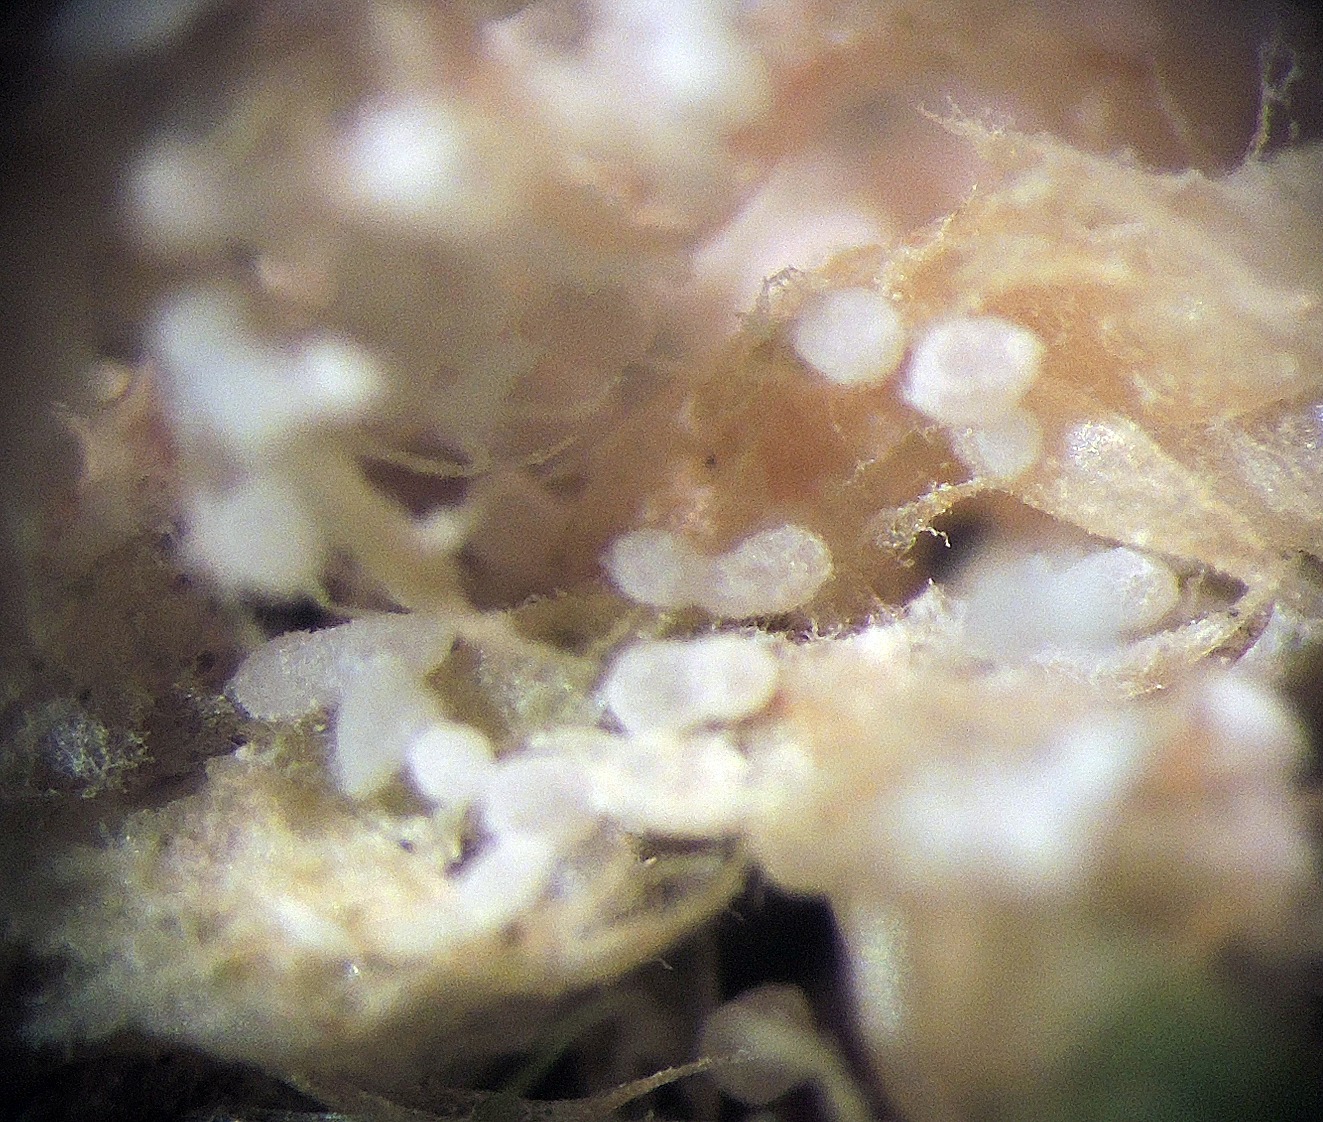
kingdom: Fungi
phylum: Basidiomycota
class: Agaricomycetes
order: Trechisporales
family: Sistotremataceae
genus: Trechispora
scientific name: Trechispora
